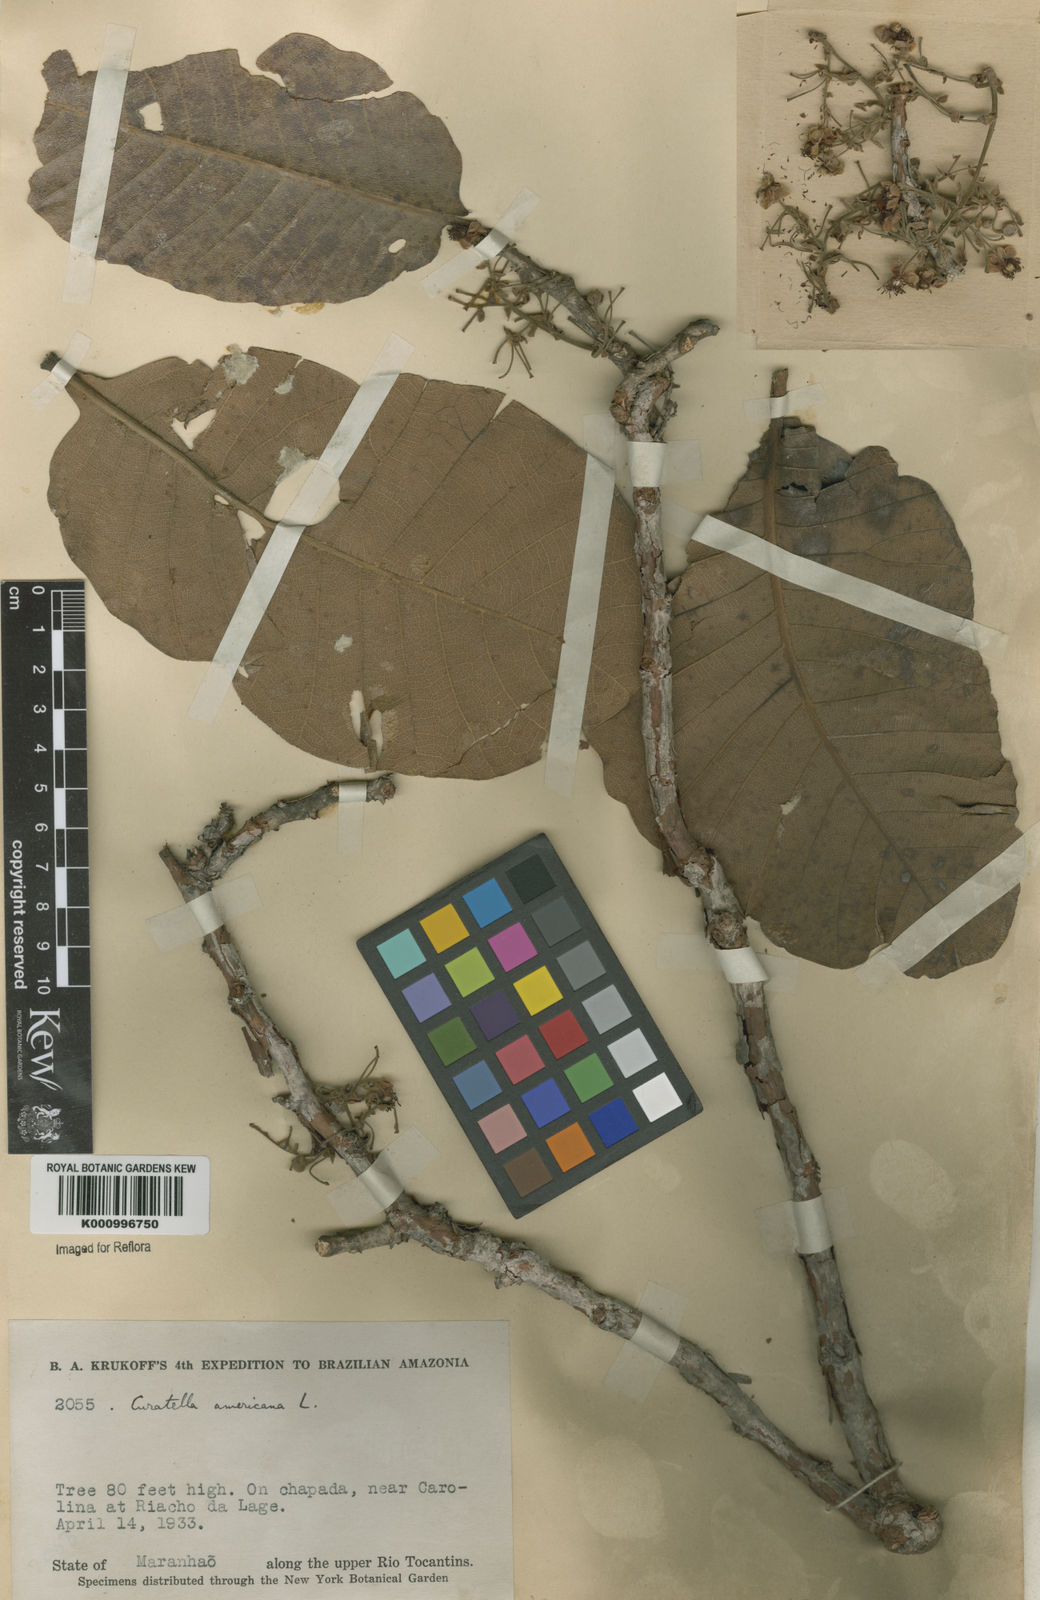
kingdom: Plantae
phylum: Tracheophyta
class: Magnoliopsida
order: Dilleniales
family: Dilleniaceae
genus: Curatella
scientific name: Curatella americana
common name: Sandpaper tree
